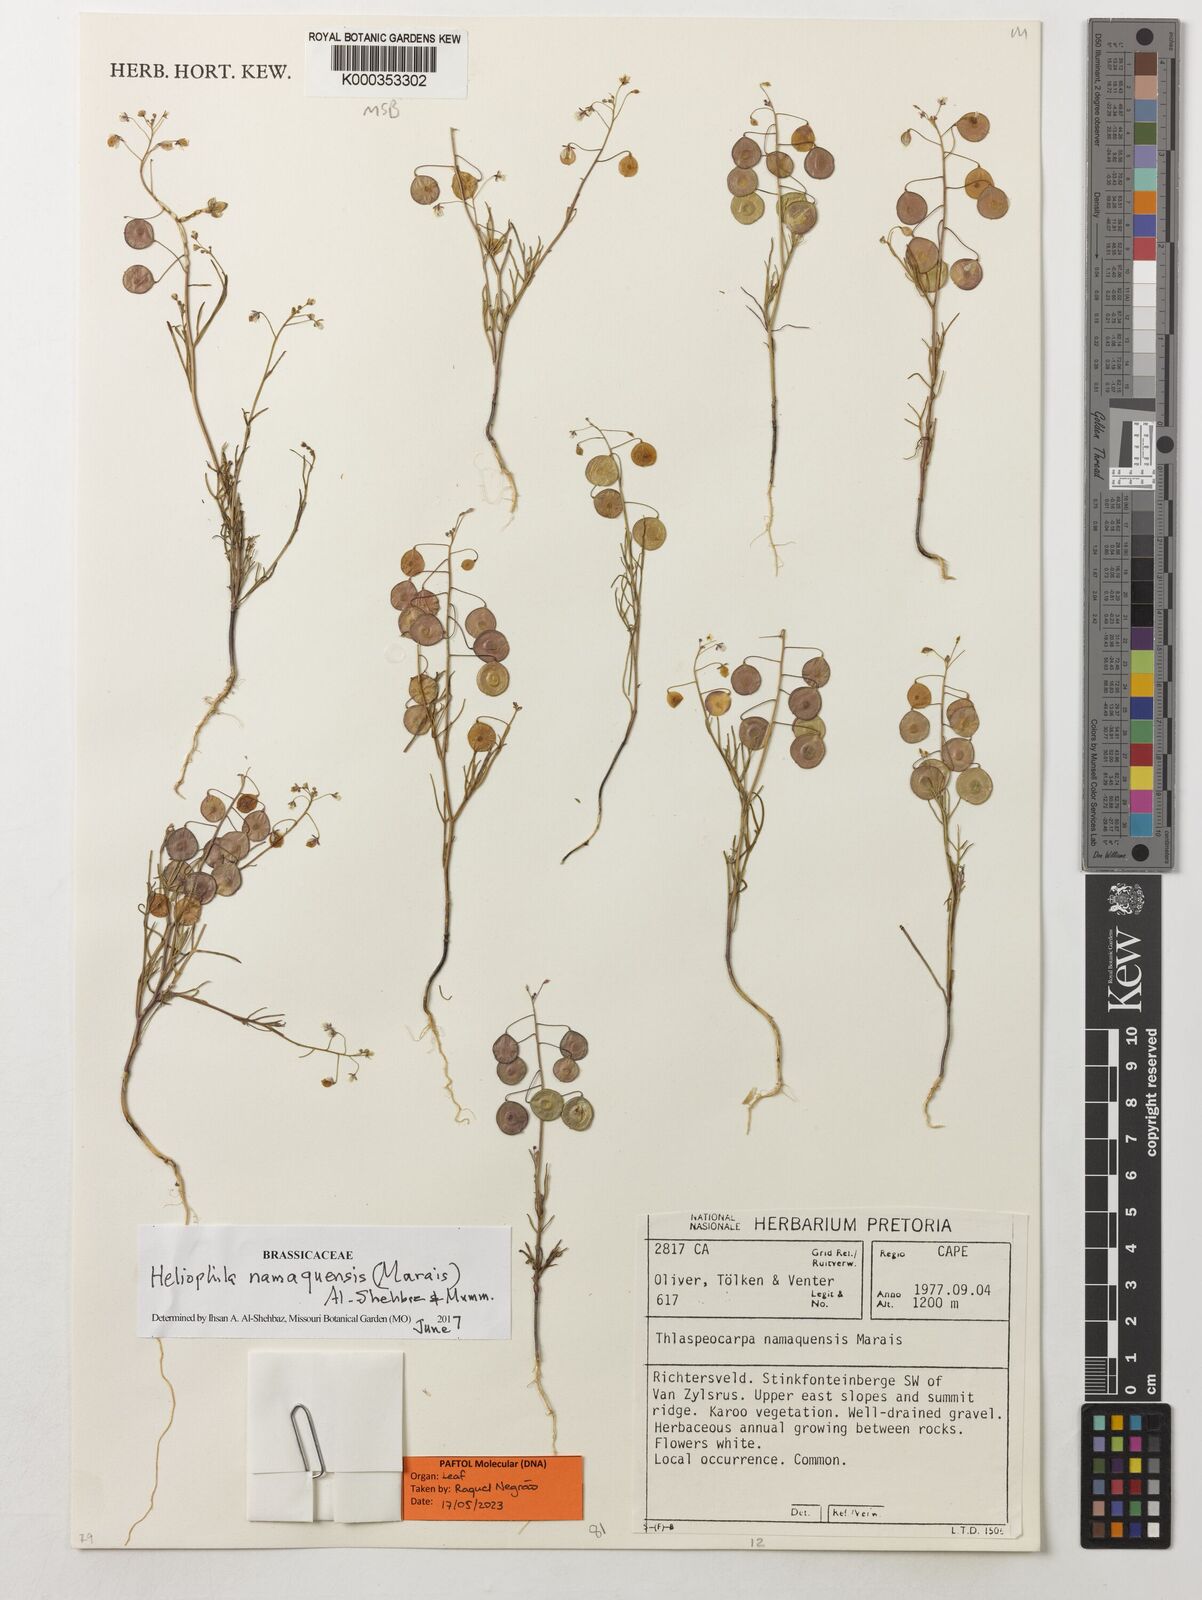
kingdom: Plantae
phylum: Tracheophyta
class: Magnoliopsida
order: Brassicales
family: Brassicaceae
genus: Heliophila
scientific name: Heliophila namaquensis
